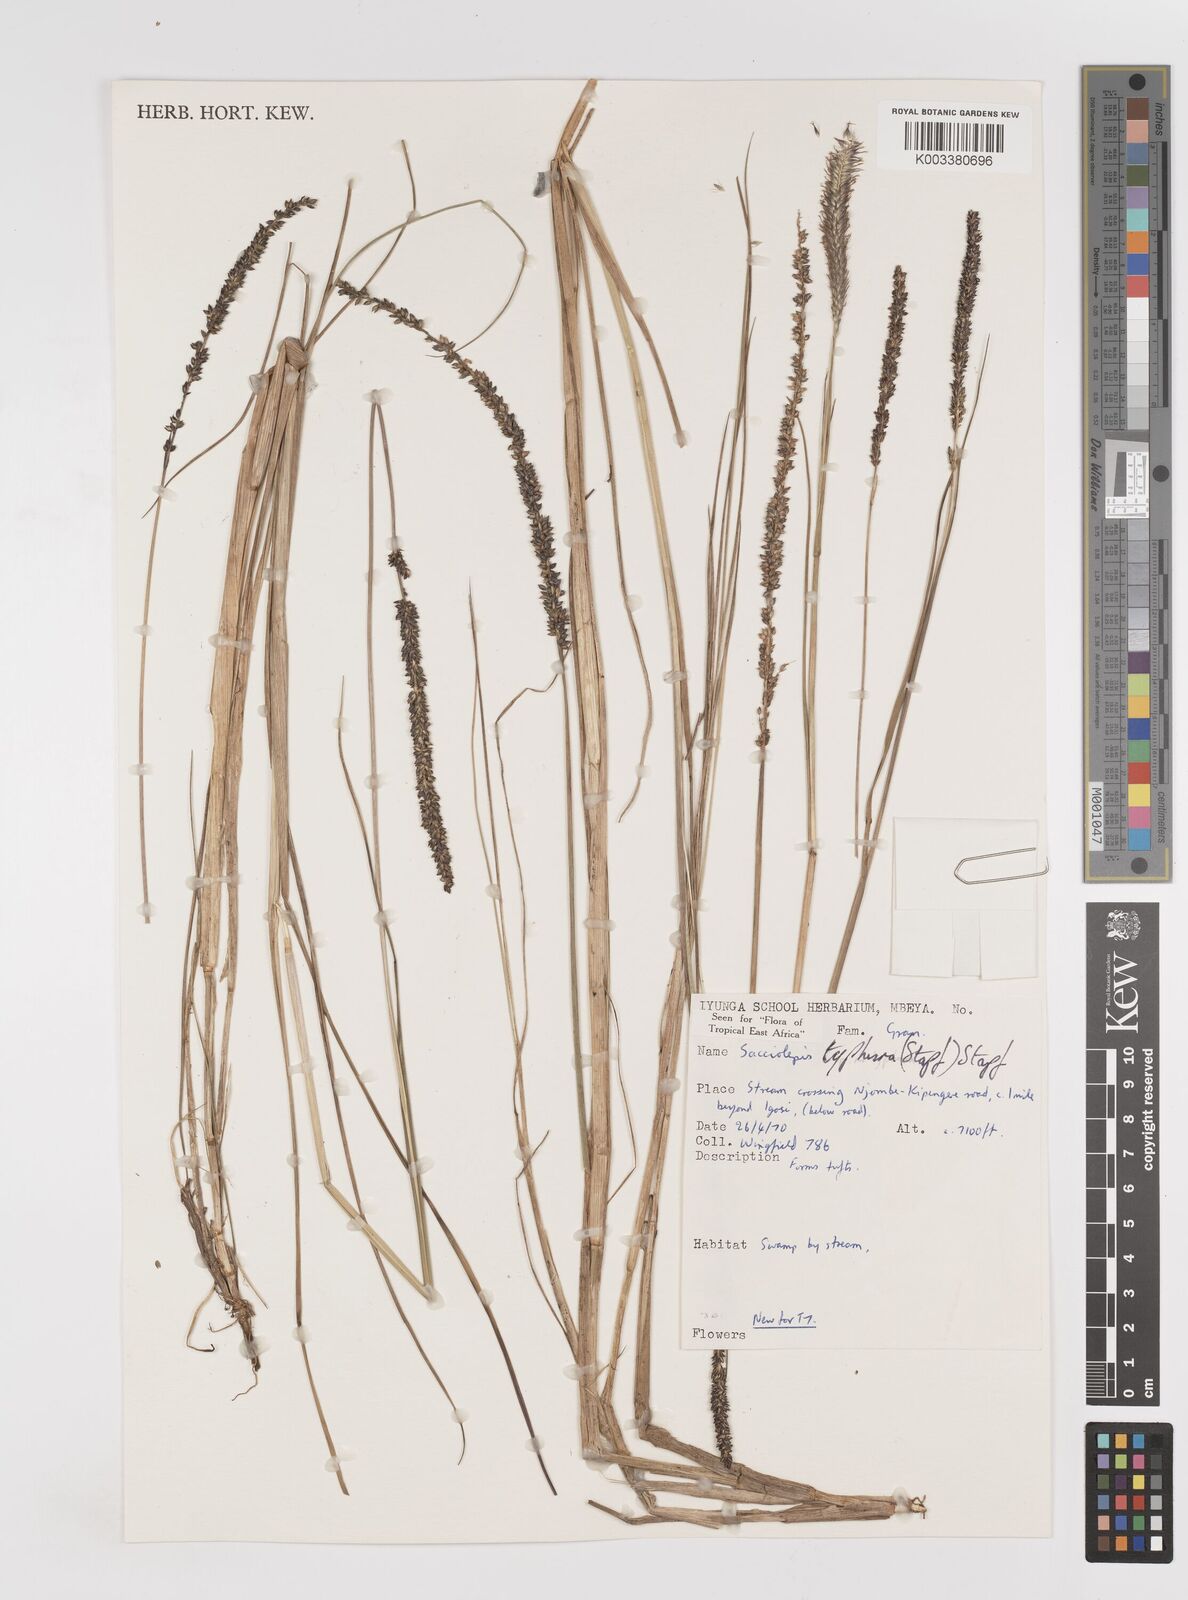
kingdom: Plantae
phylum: Tracheophyta
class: Liliopsida
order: Poales
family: Poaceae
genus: Sacciolepis
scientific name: Sacciolepis typhura
